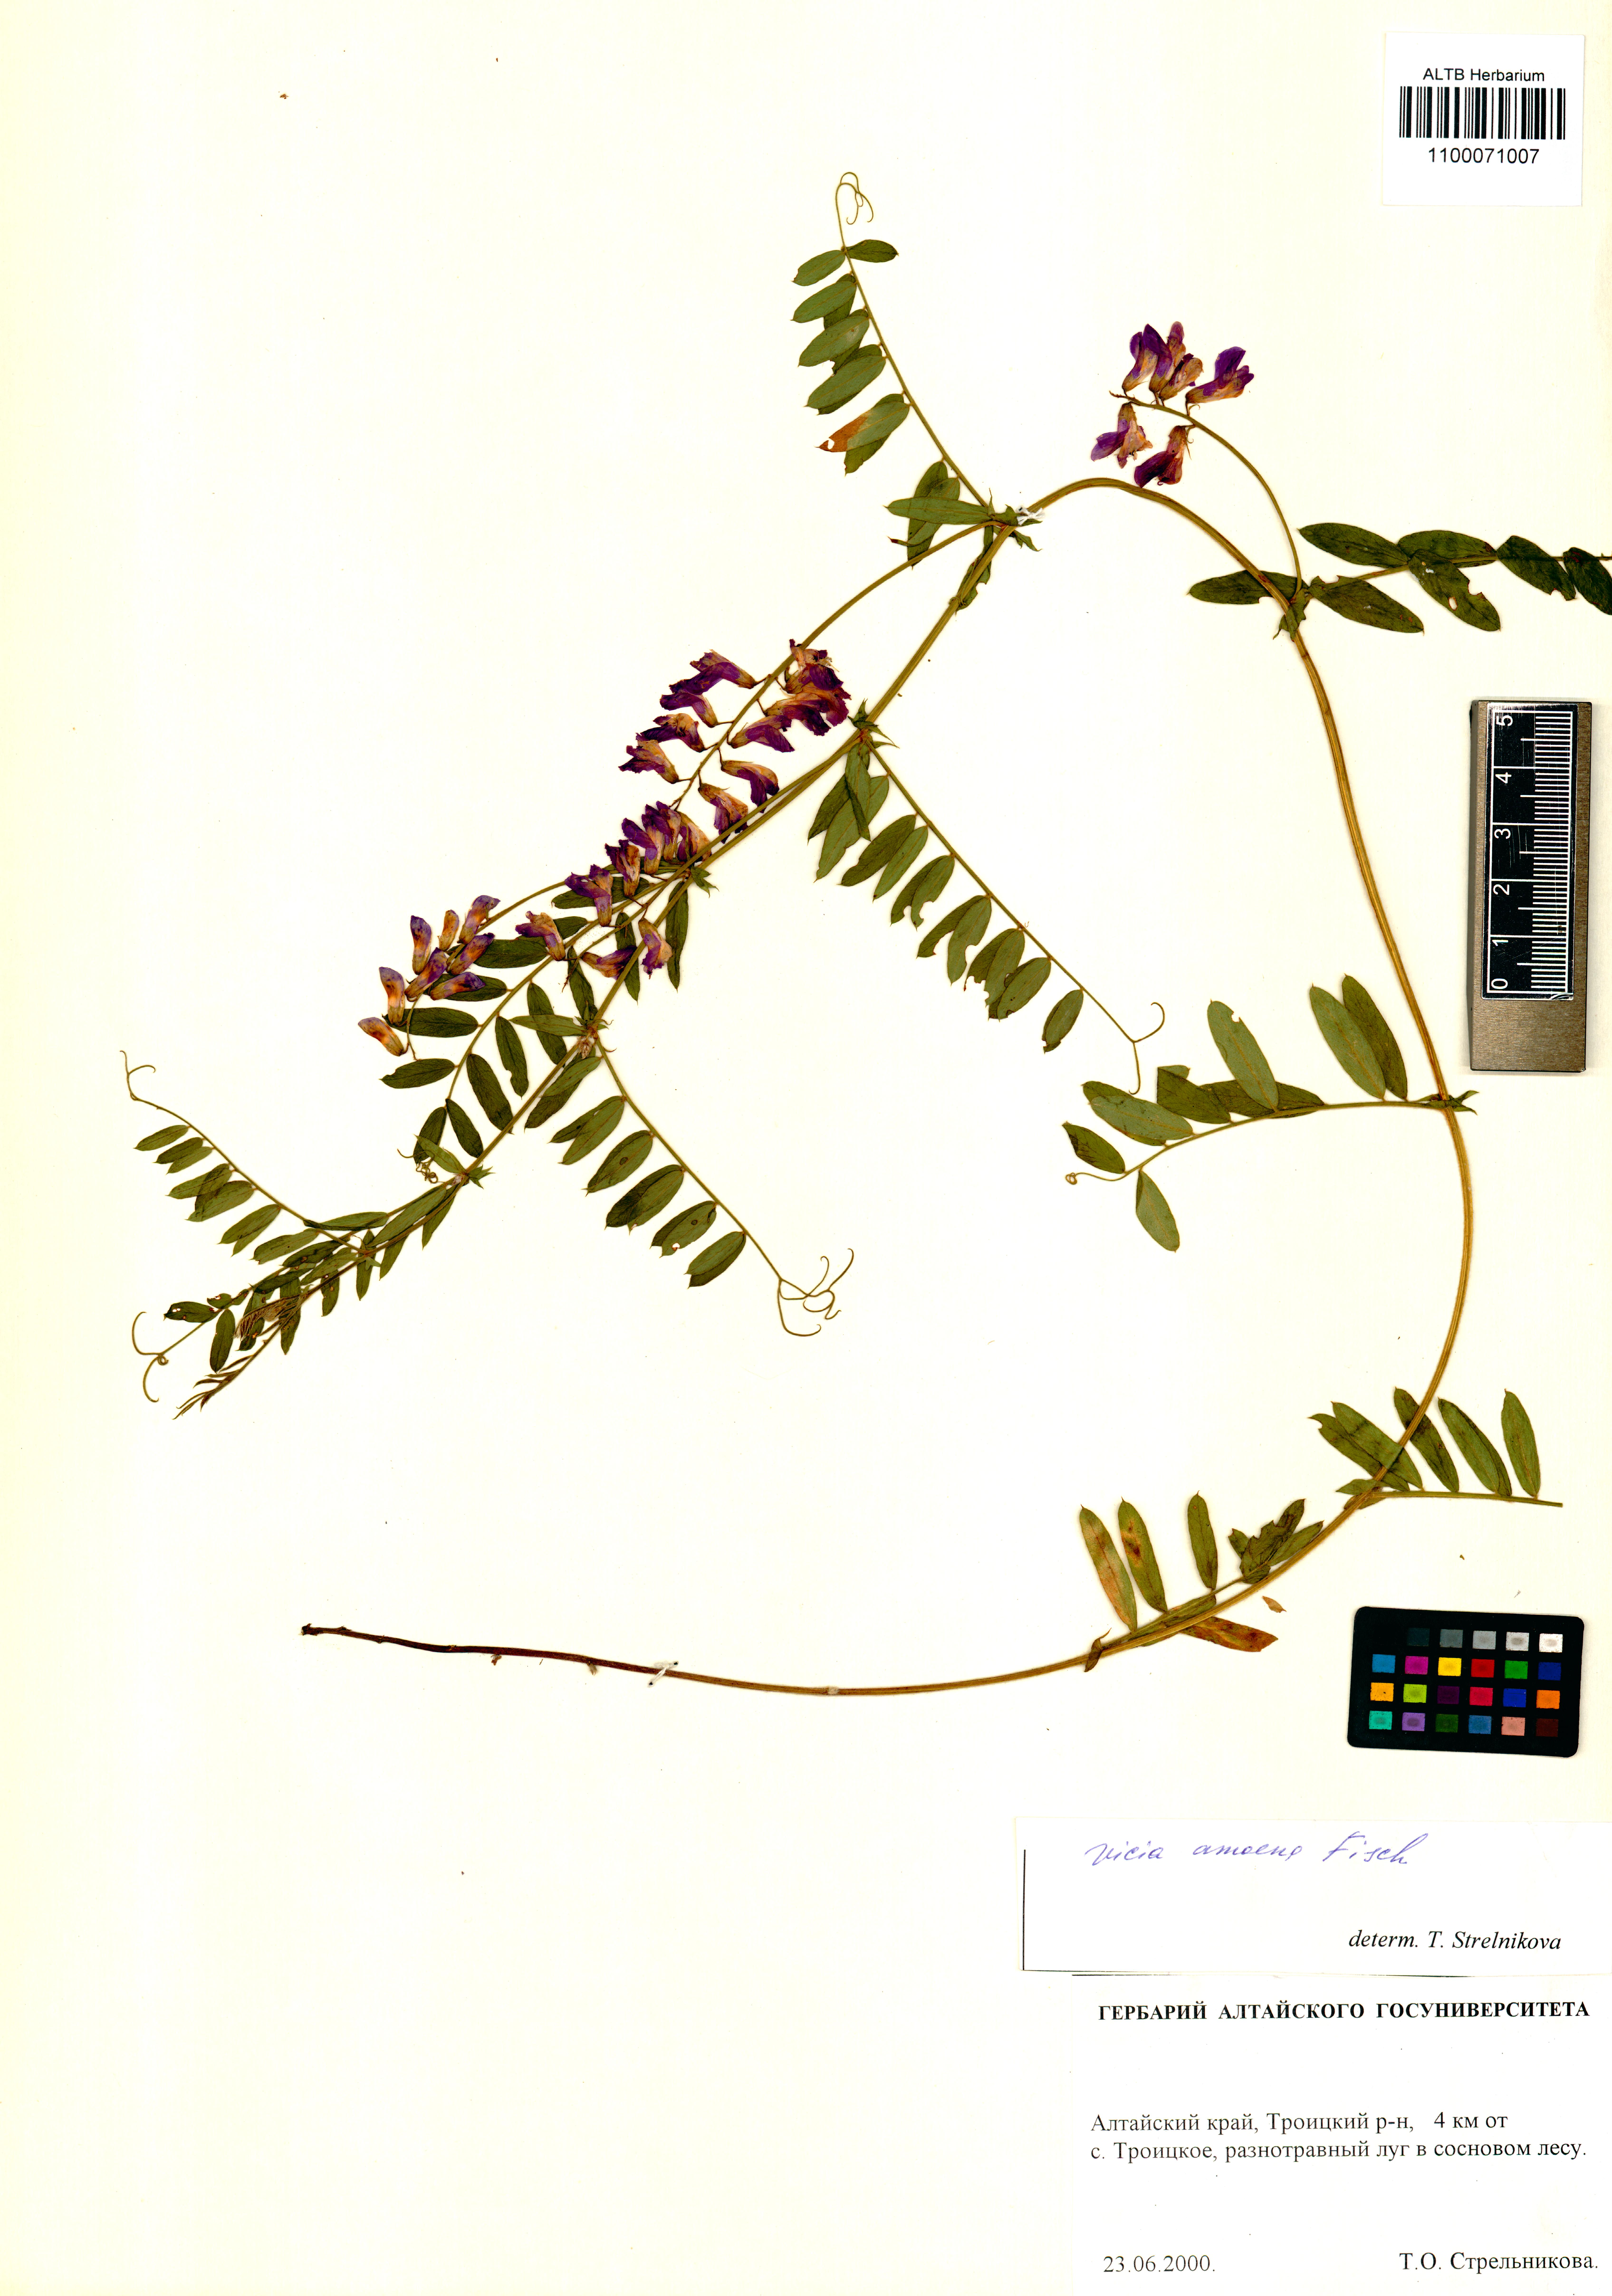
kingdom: Plantae
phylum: Tracheophyta
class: Magnoliopsida
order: Fabales
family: Fabaceae
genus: Vicia
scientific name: Vicia amoena
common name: Cheder ebs
